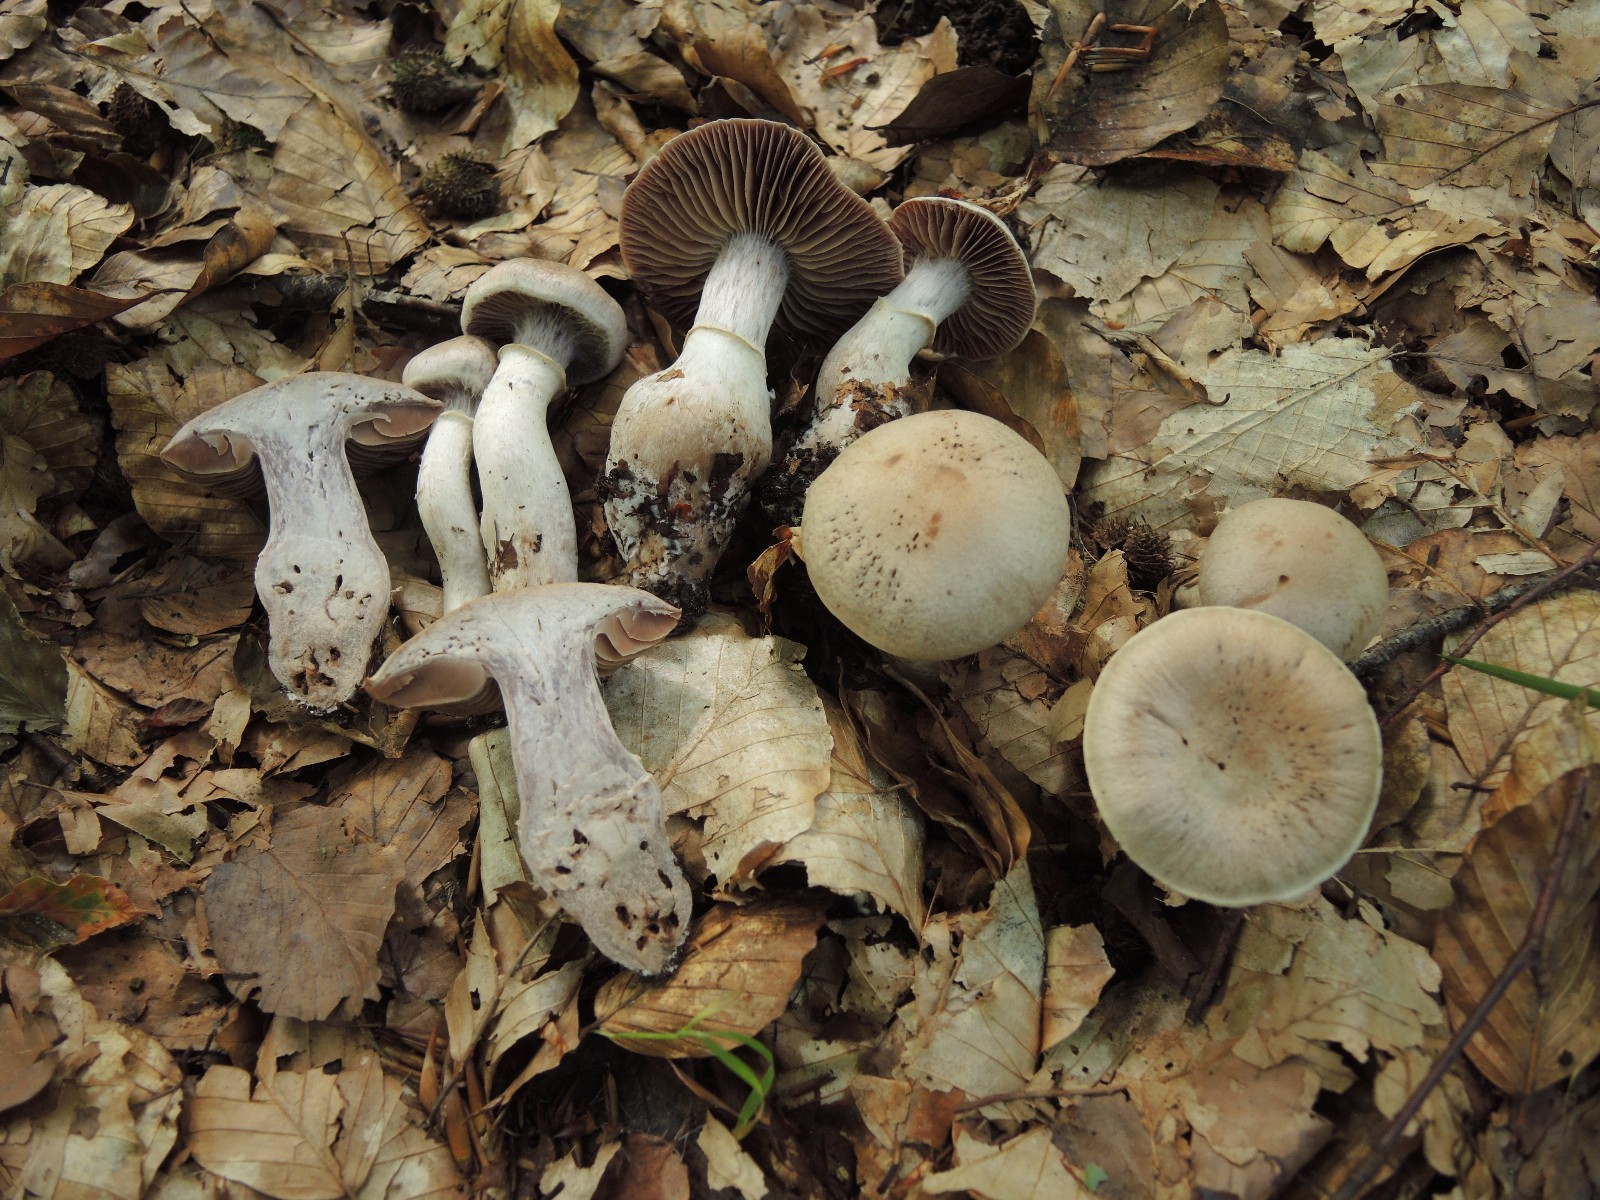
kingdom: Fungi
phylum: Basidiomycota
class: Agaricomycetes
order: Agaricales
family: Cortinariaceae
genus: Cortinarius
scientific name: Cortinarius torvus
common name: champignonagtig slørhat
